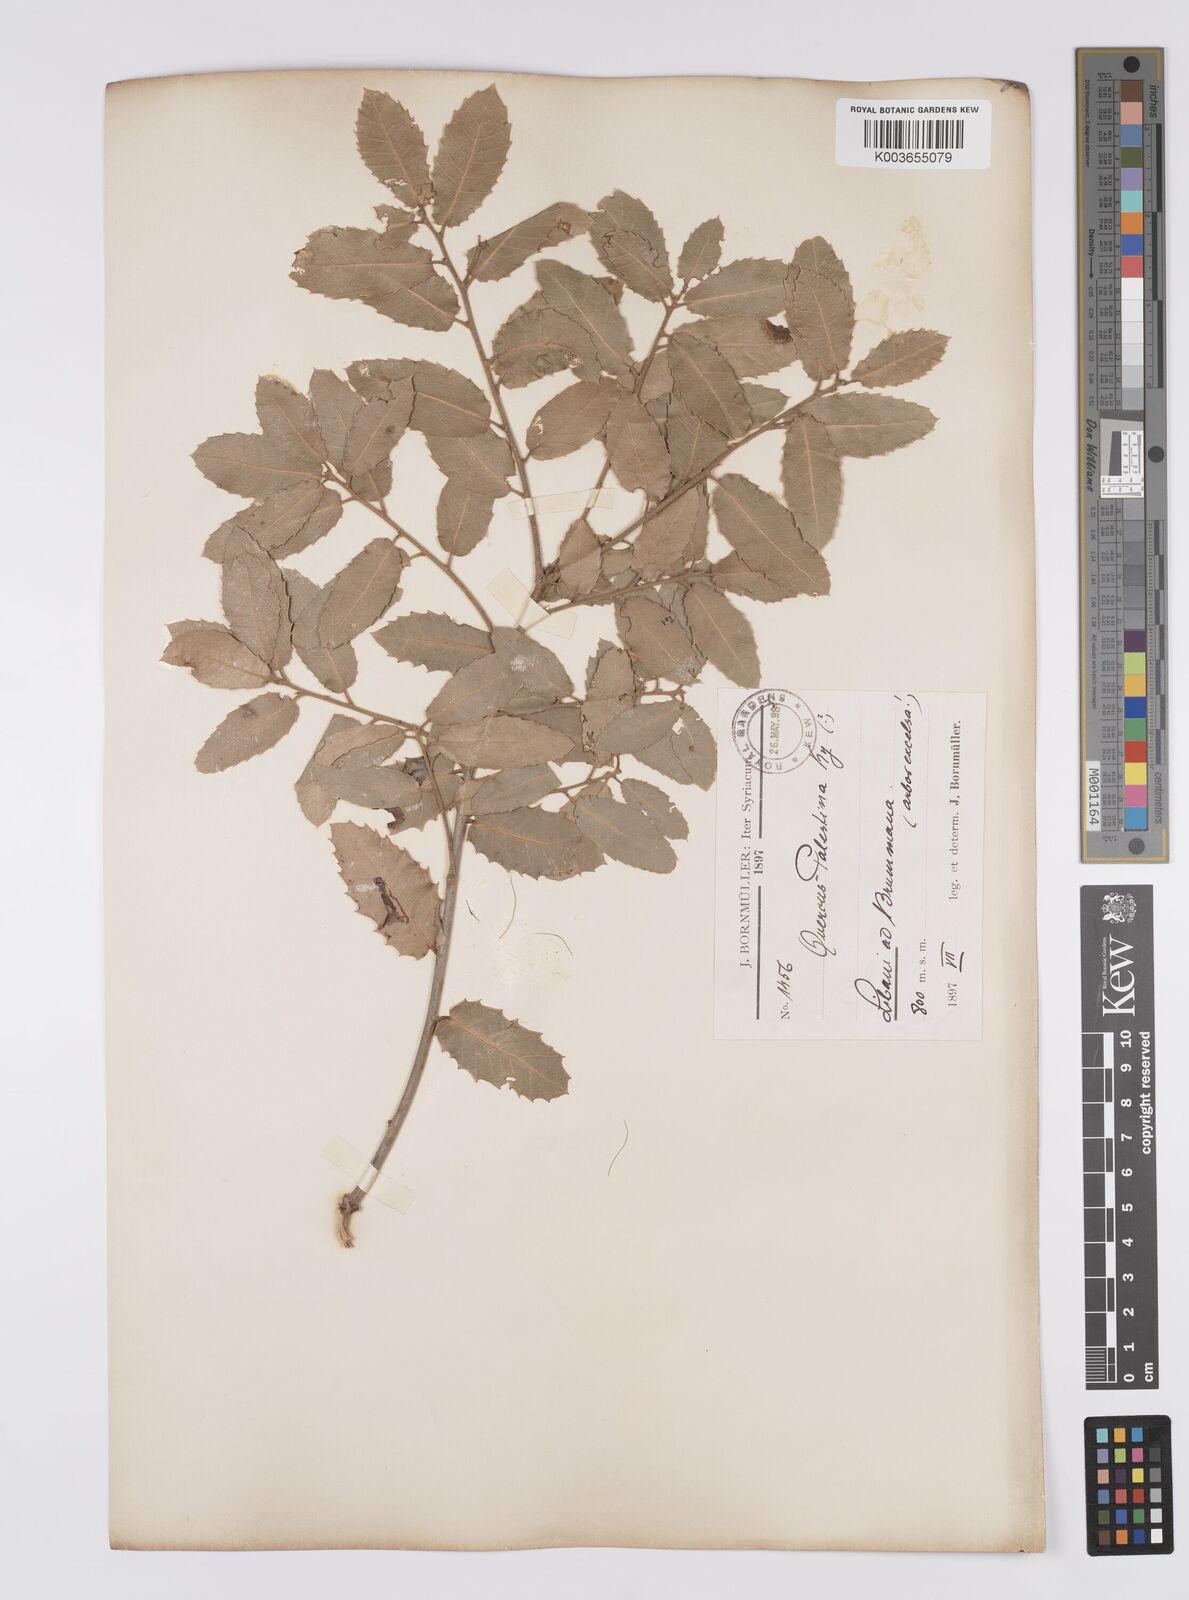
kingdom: Plantae
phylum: Tracheophyta
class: Magnoliopsida
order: Fagales
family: Fagaceae
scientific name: Fagaceae
